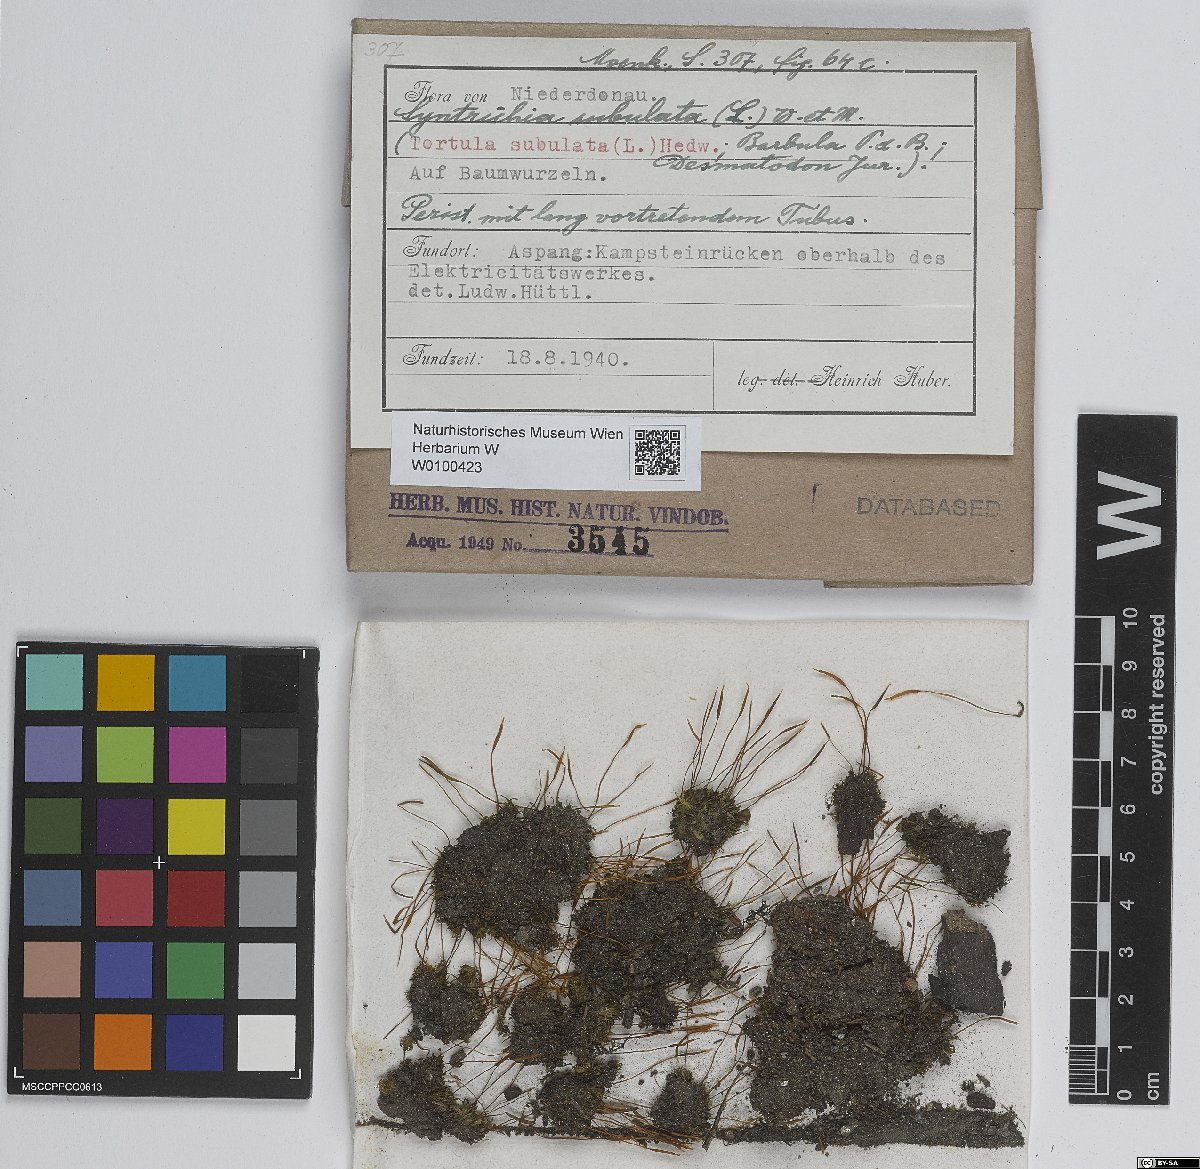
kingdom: Plantae
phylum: Bryophyta
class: Bryopsida
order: Pottiales
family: Pottiaceae
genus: Tortula
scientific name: Tortula subulata
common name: Upright screw-moss
